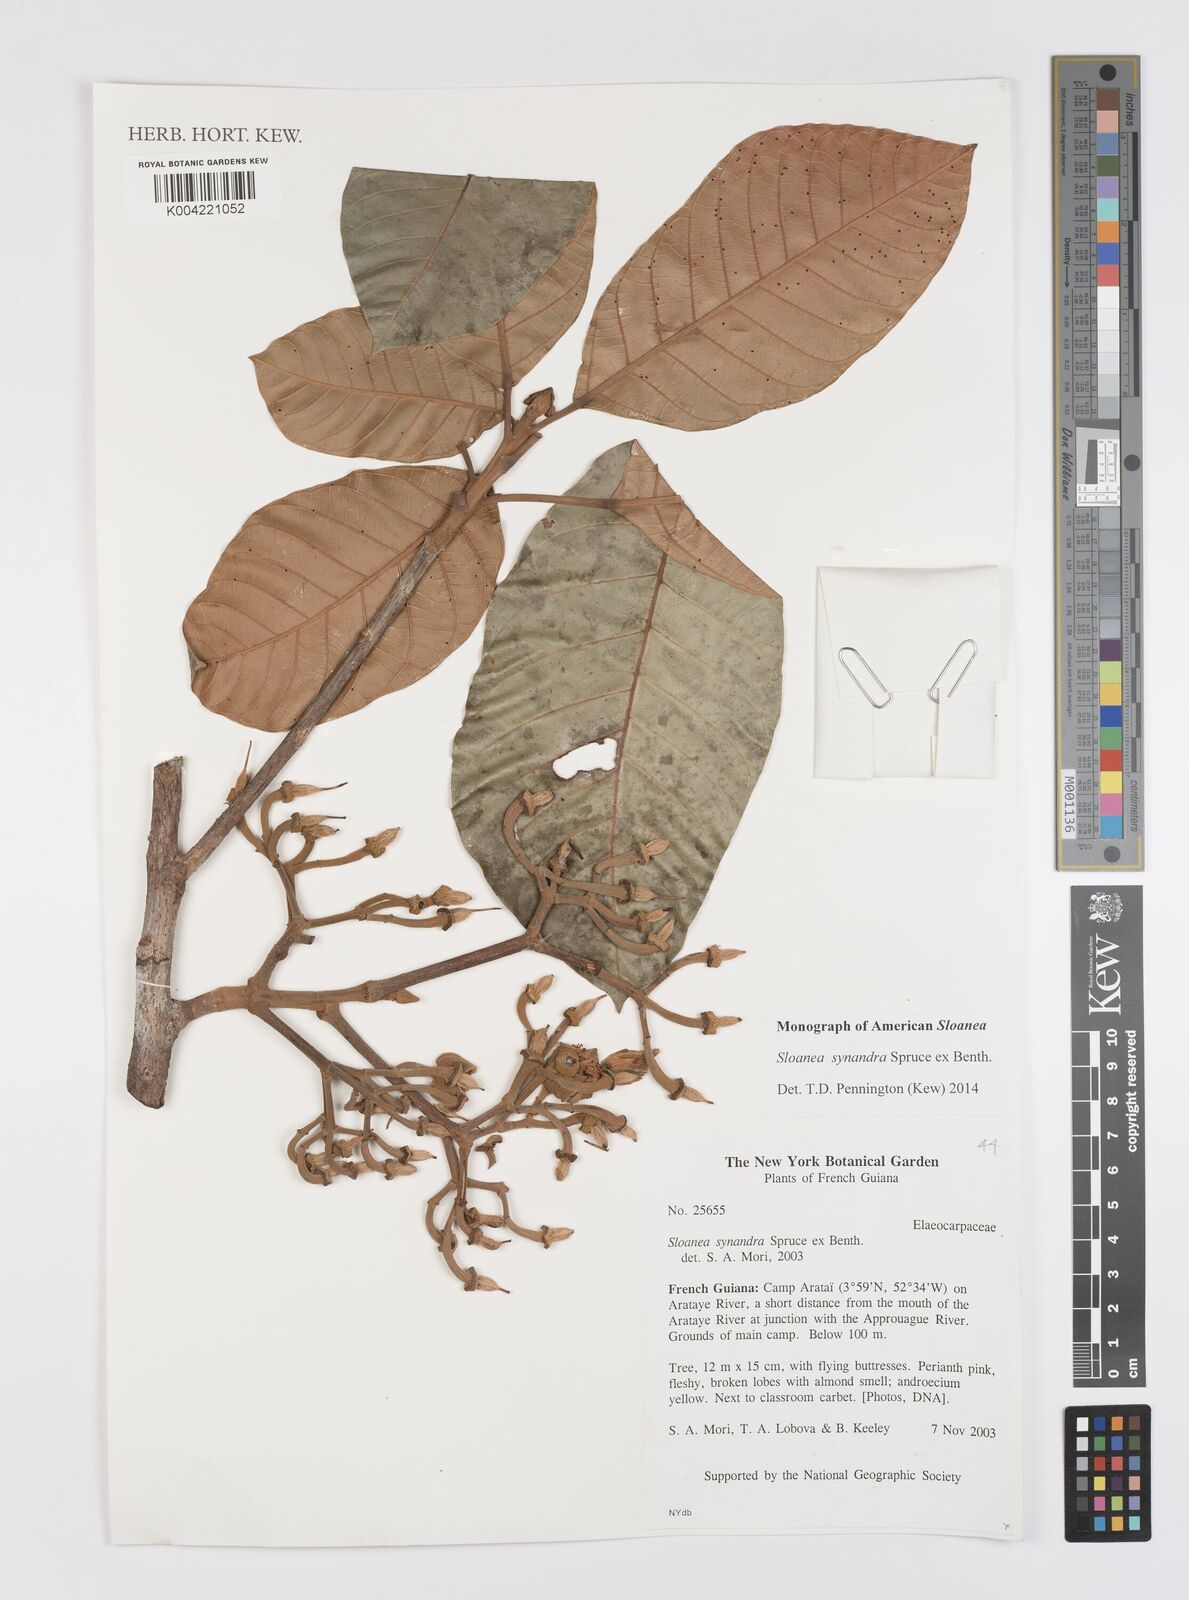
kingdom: Plantae
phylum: Tracheophyta
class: Magnoliopsida
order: Oxalidales
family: Elaeocarpaceae
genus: Sloanea
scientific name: Sloanea synandra
